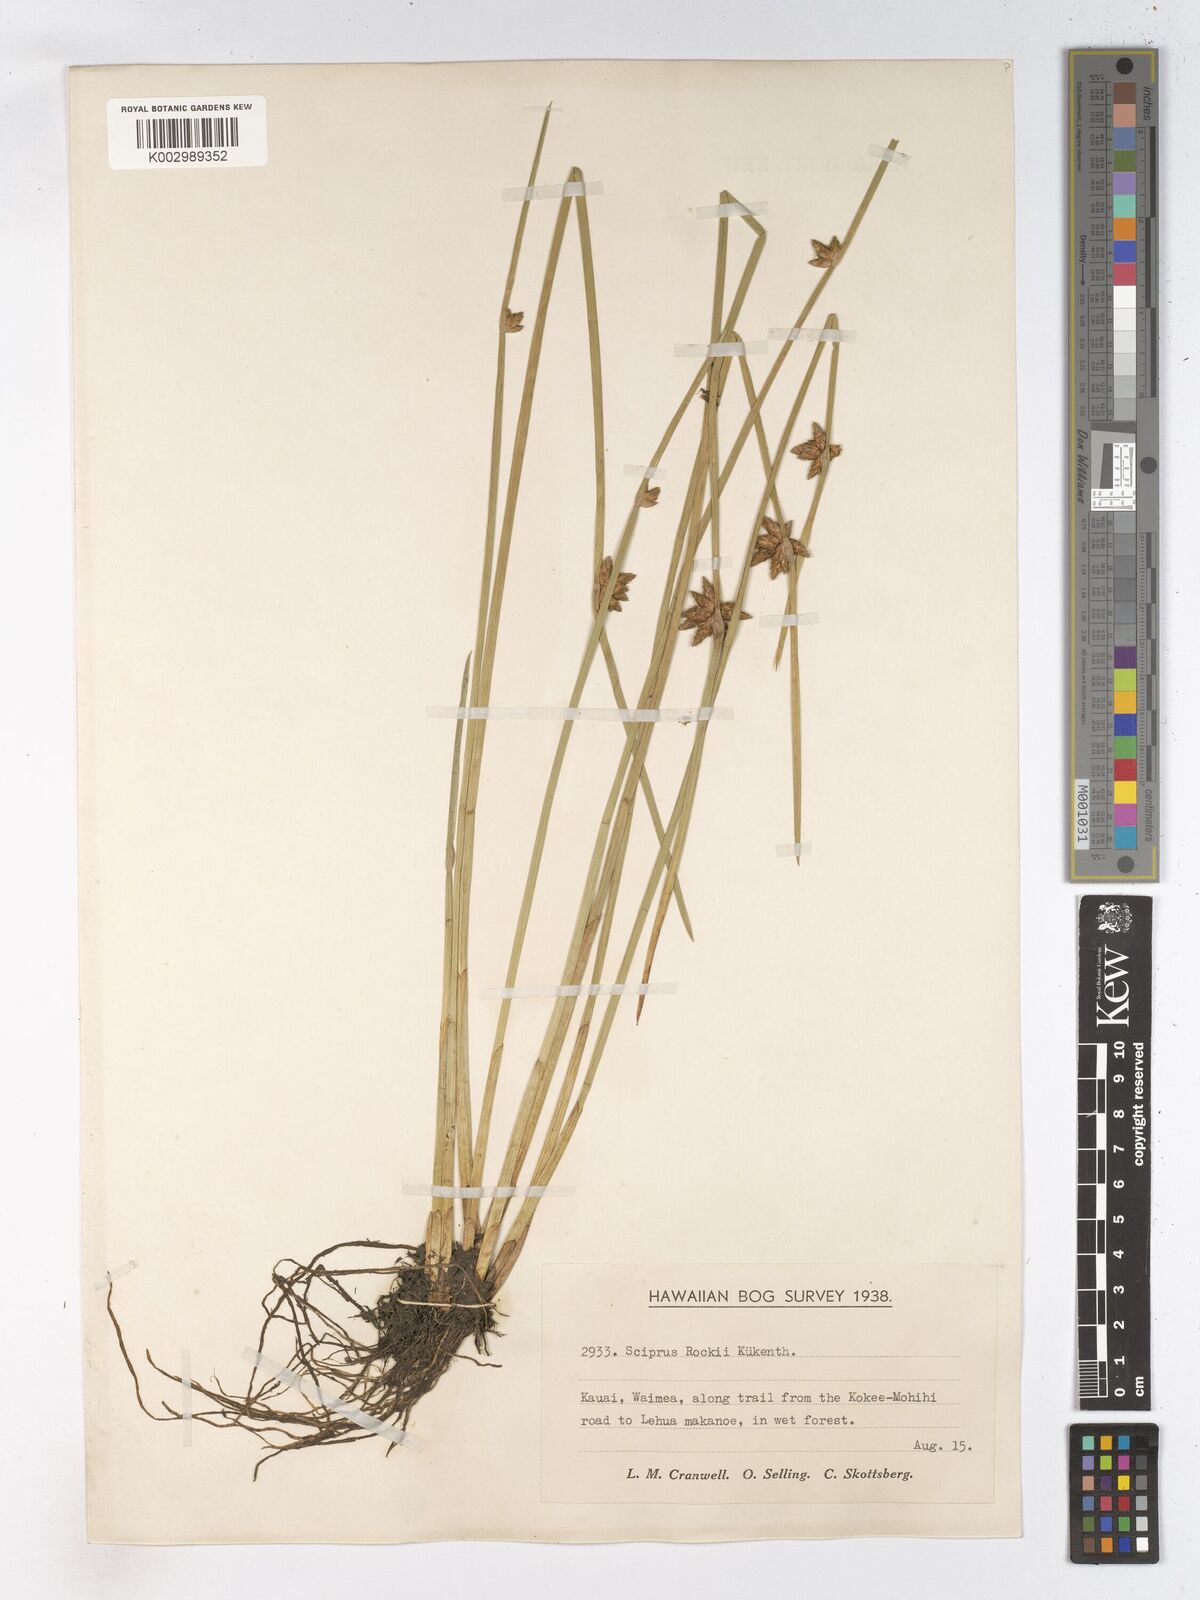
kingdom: Plantae
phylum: Tracheophyta
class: Liliopsida
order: Poales
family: Cyperaceae
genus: Schoenoplectiella
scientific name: Schoenoplectiella juncoides
